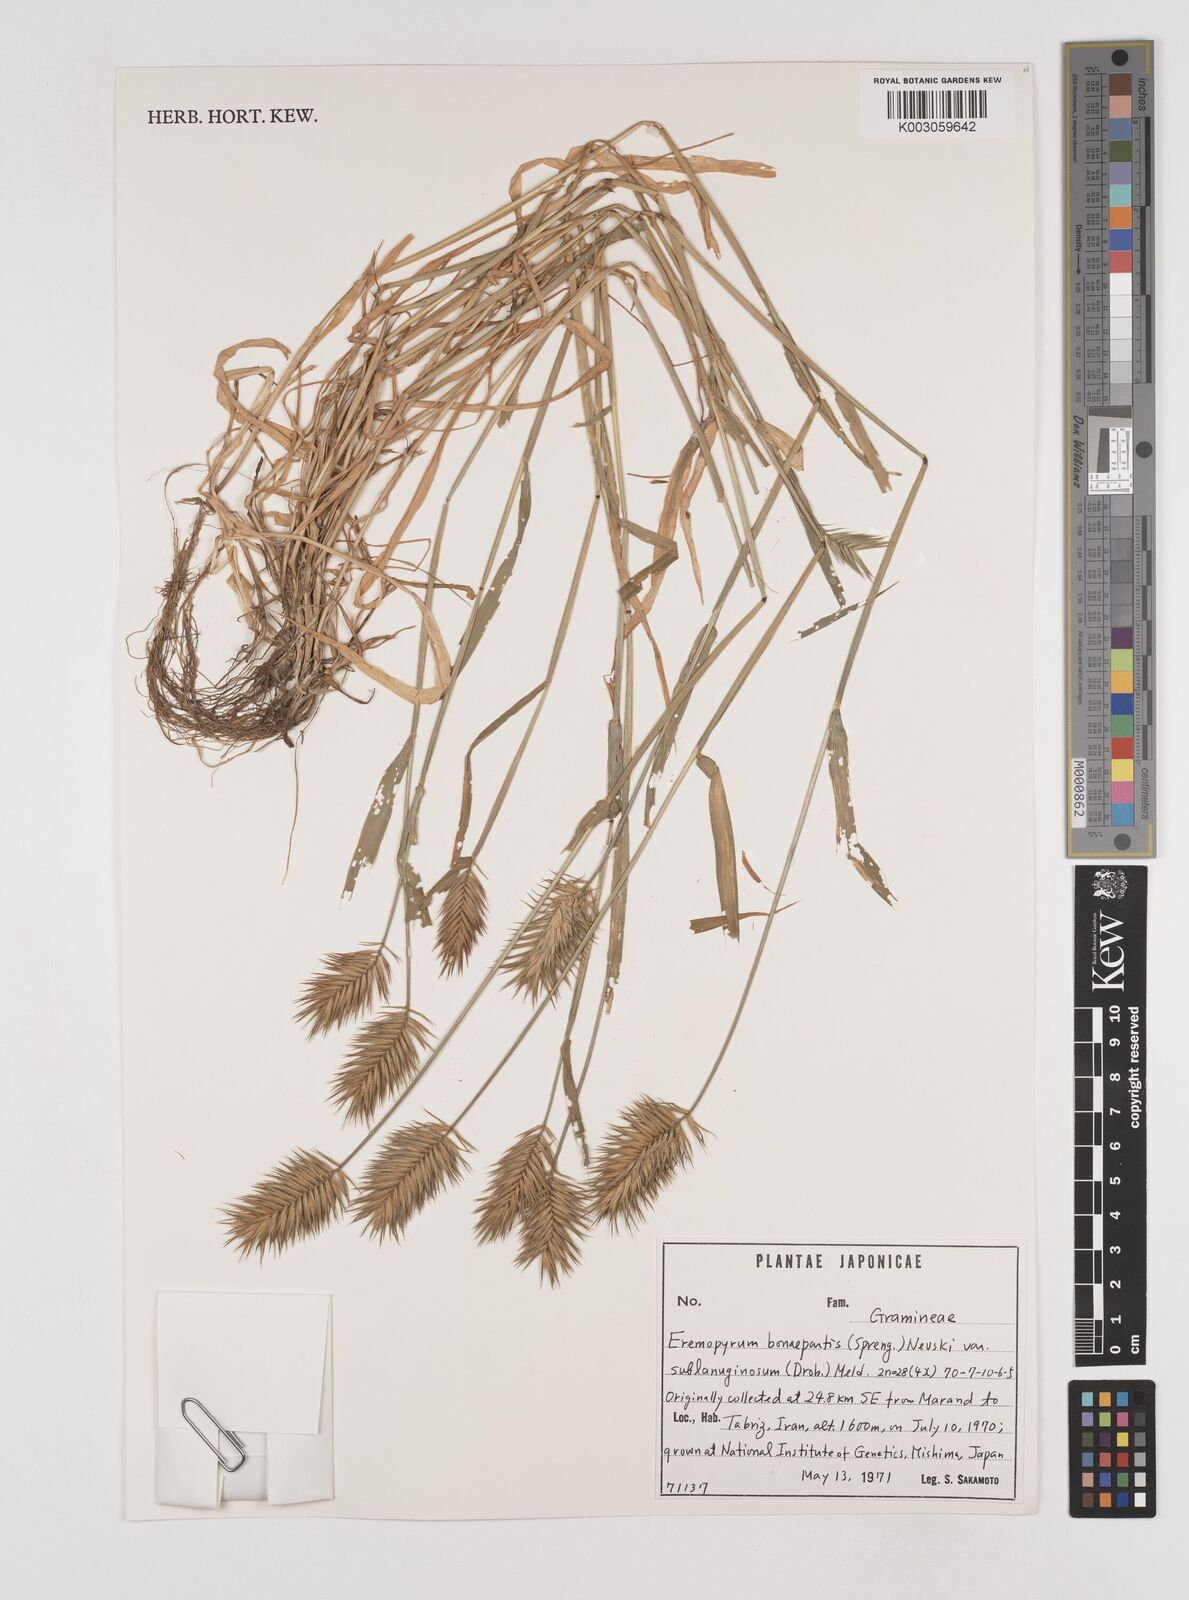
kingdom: Plantae
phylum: Tracheophyta
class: Liliopsida
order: Poales
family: Poaceae
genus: Eremopyrum
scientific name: Eremopyrum bonaepartis
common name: Tapertip false wheatgrass
